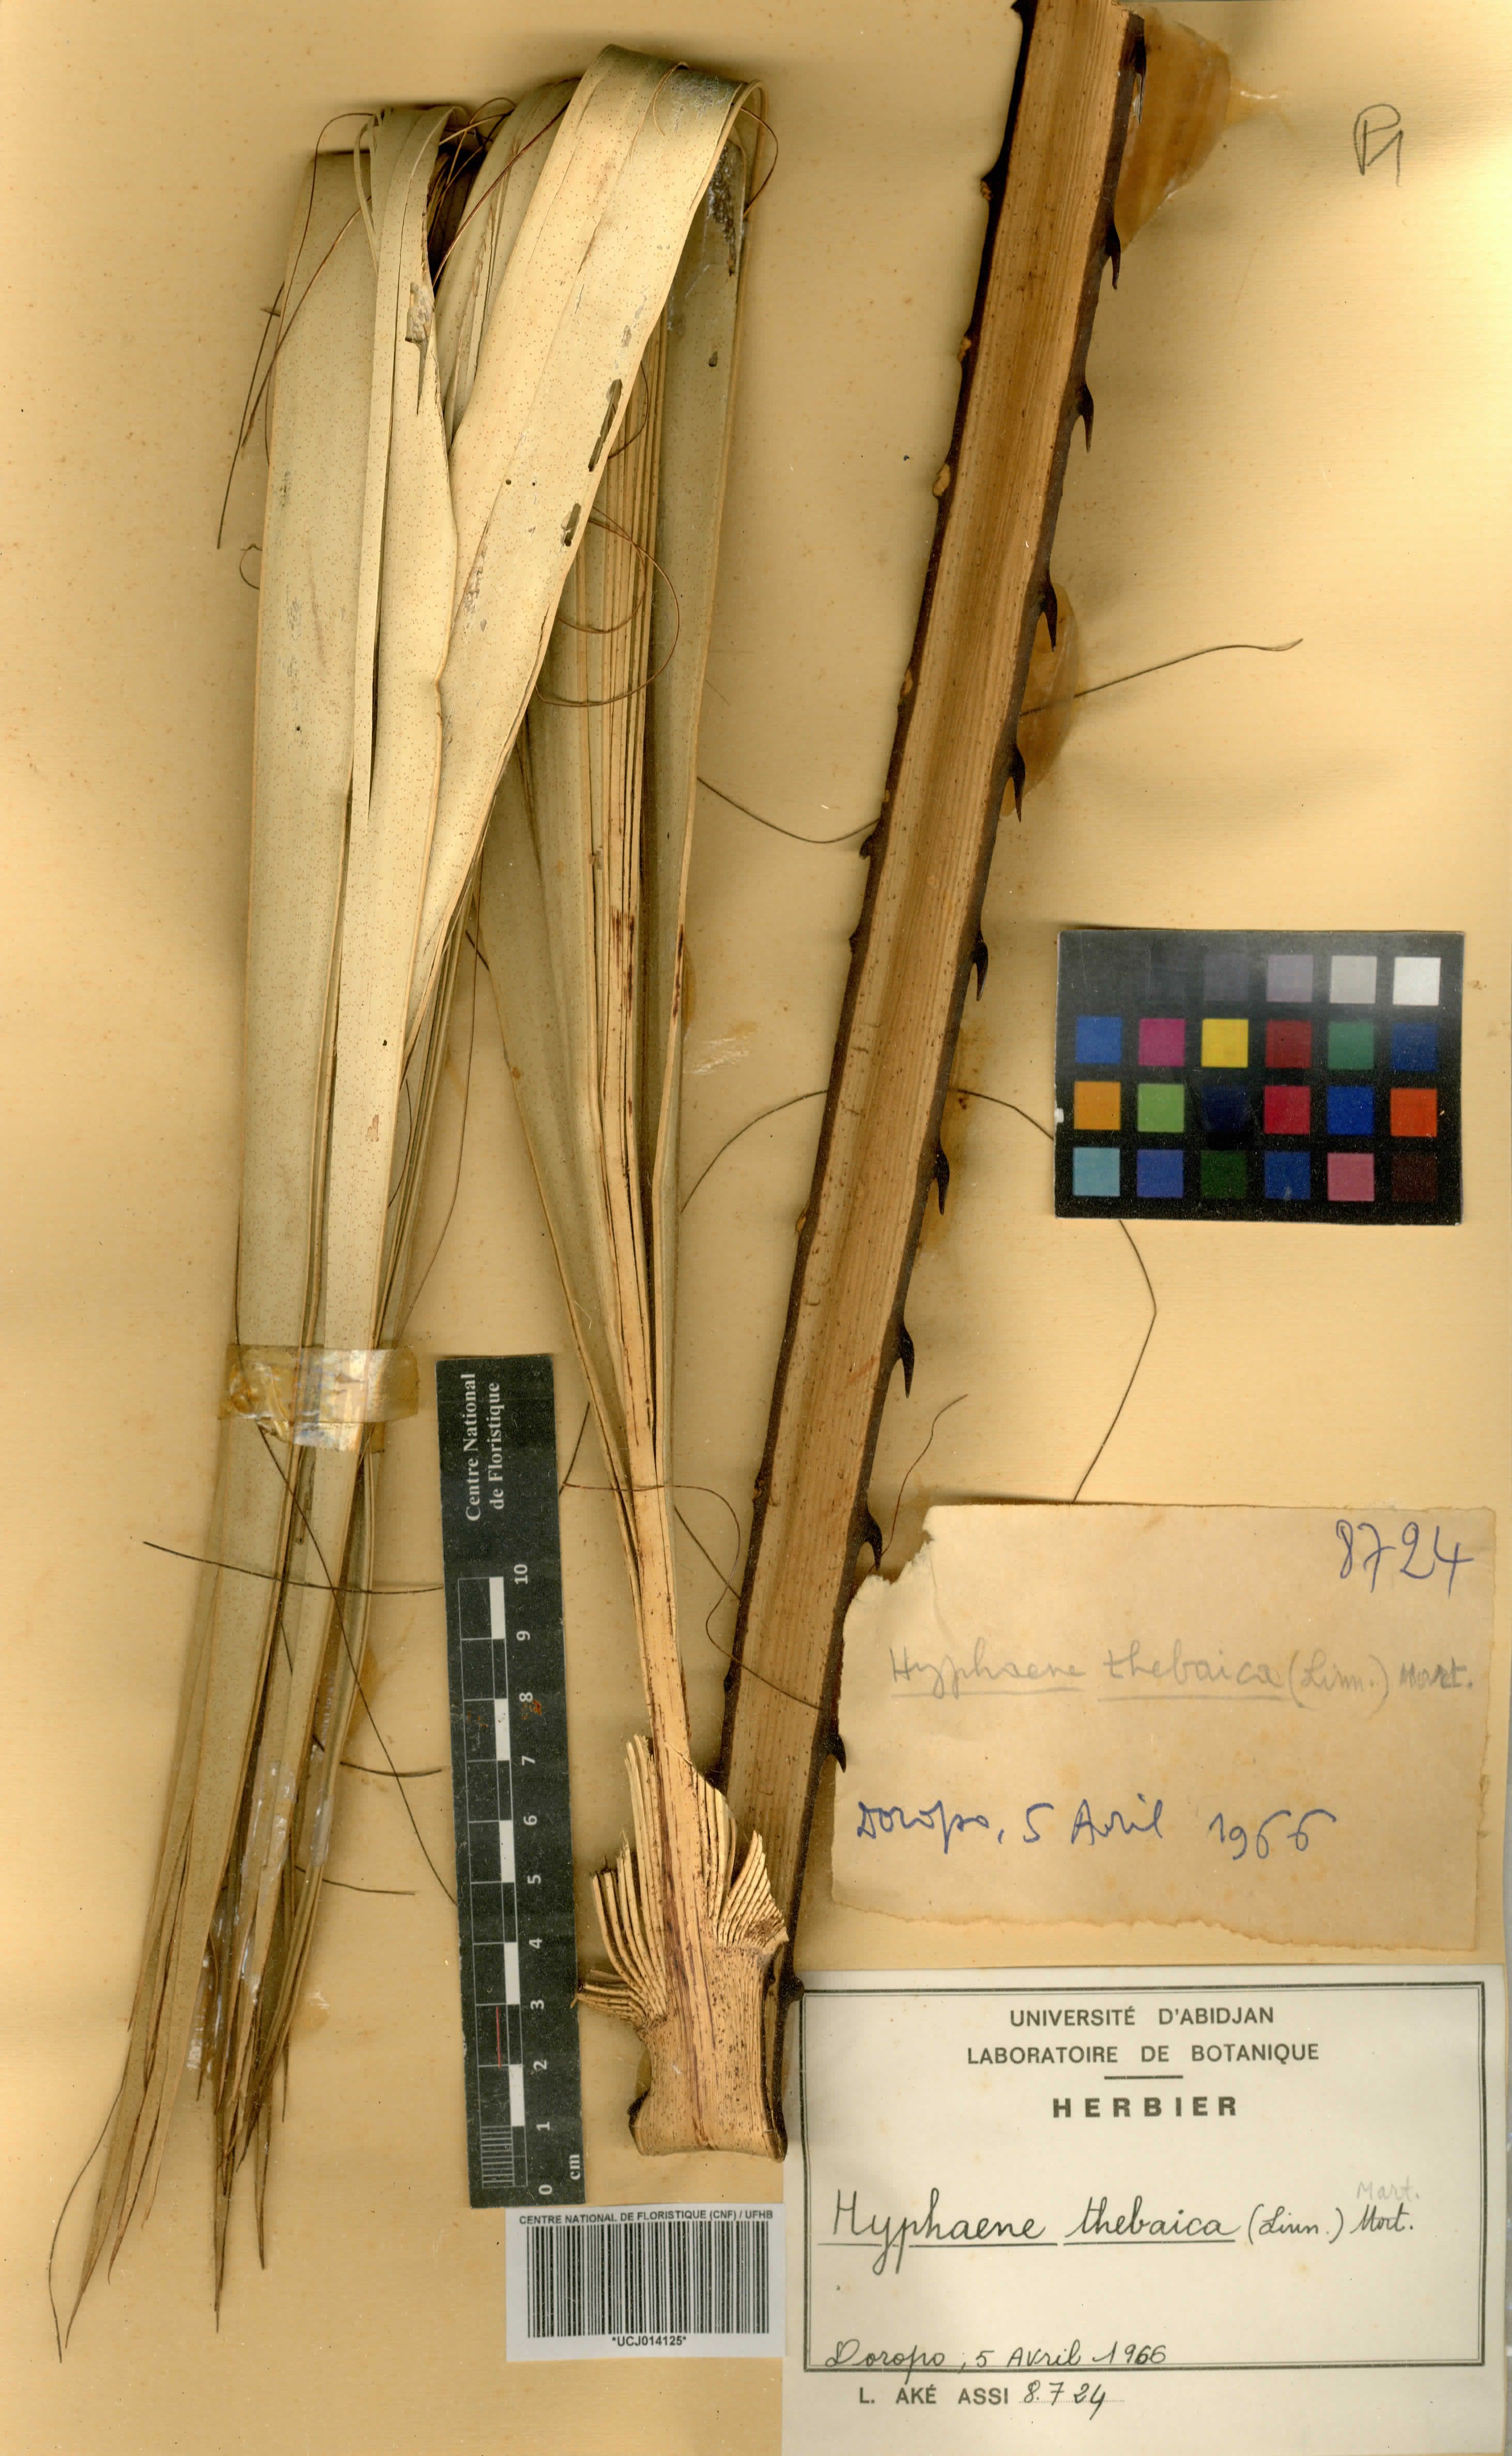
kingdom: Plantae
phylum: Tracheophyta
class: Liliopsida
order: Arecales
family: Arecaceae
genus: Hyphaene
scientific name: Hyphaene thebaica
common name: Doum palm
